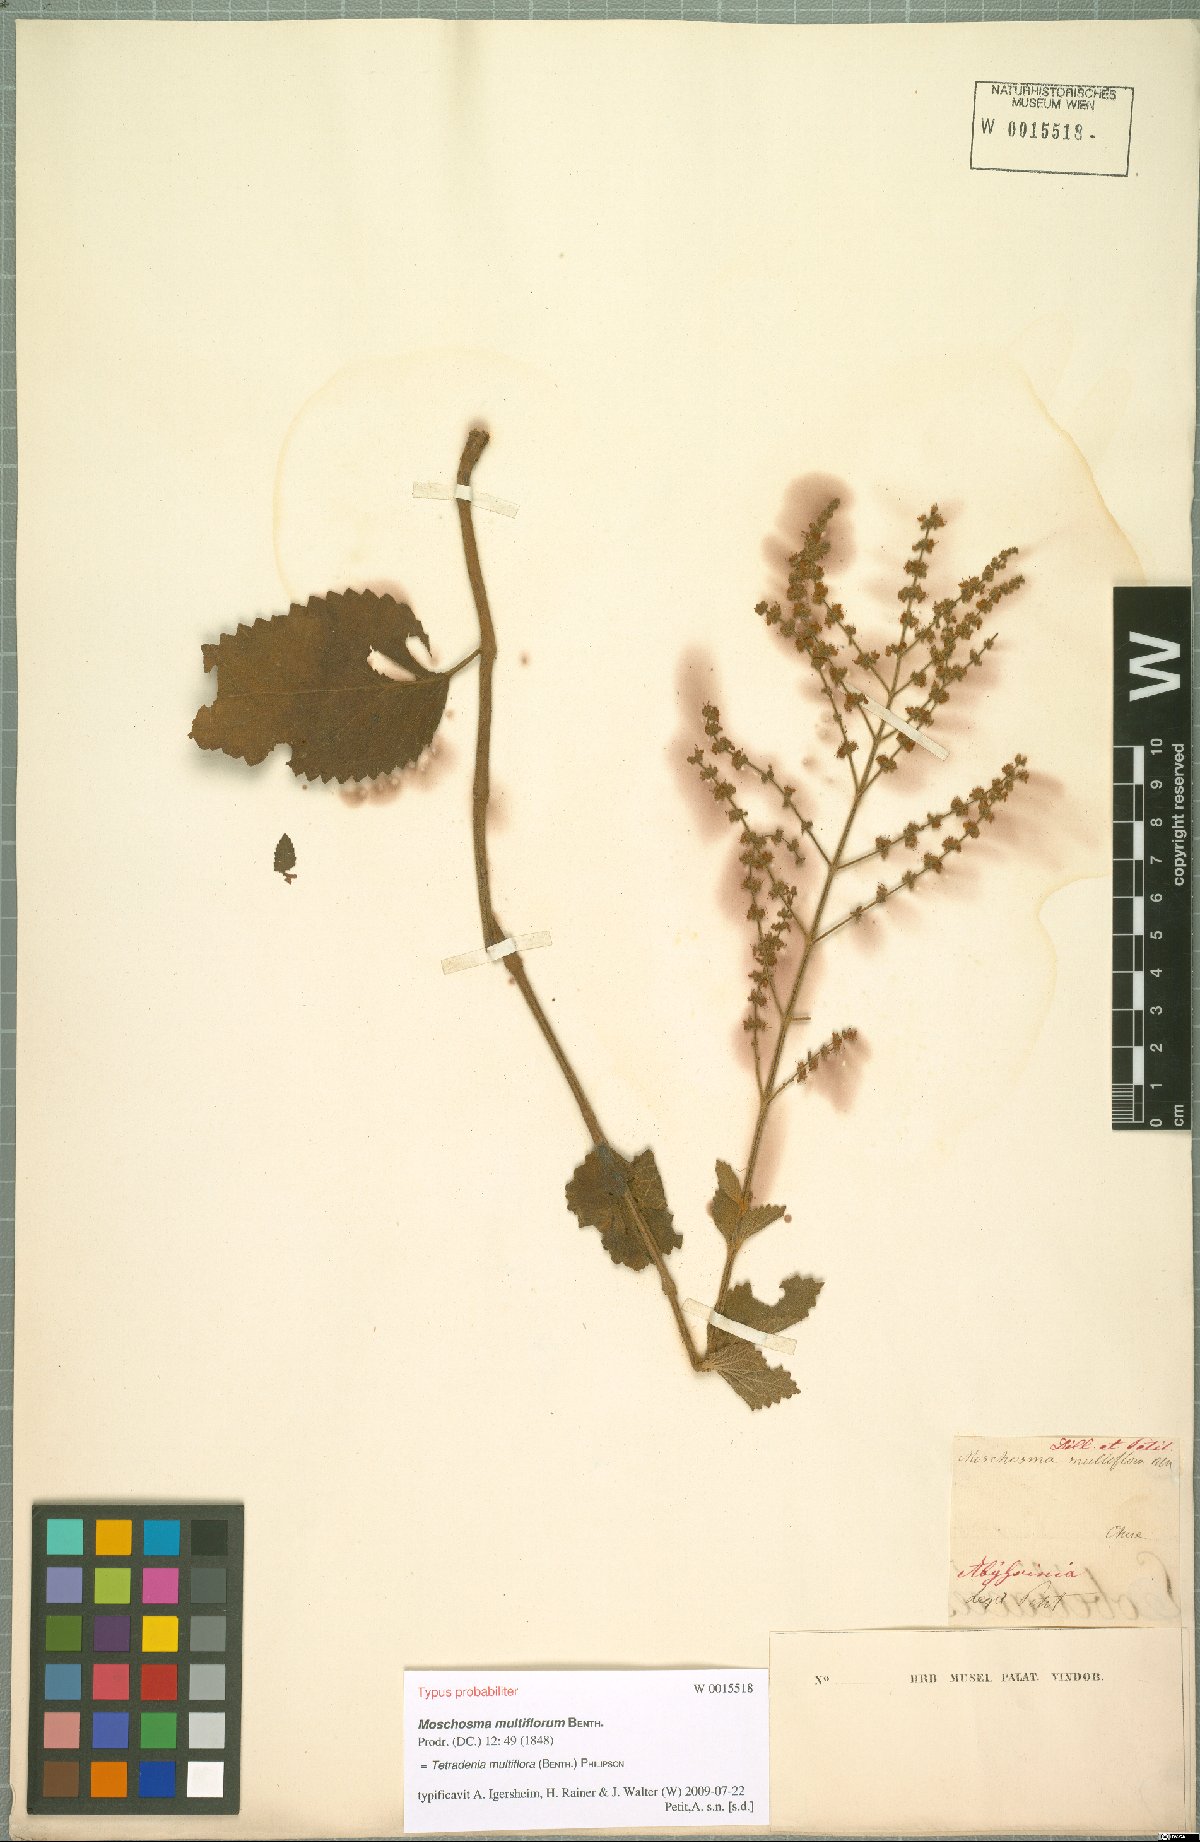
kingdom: Plantae
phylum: Tracheophyta
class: Magnoliopsida
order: Lamiales
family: Lamiaceae
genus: Tetradenia
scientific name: Tetradenia multiflora
